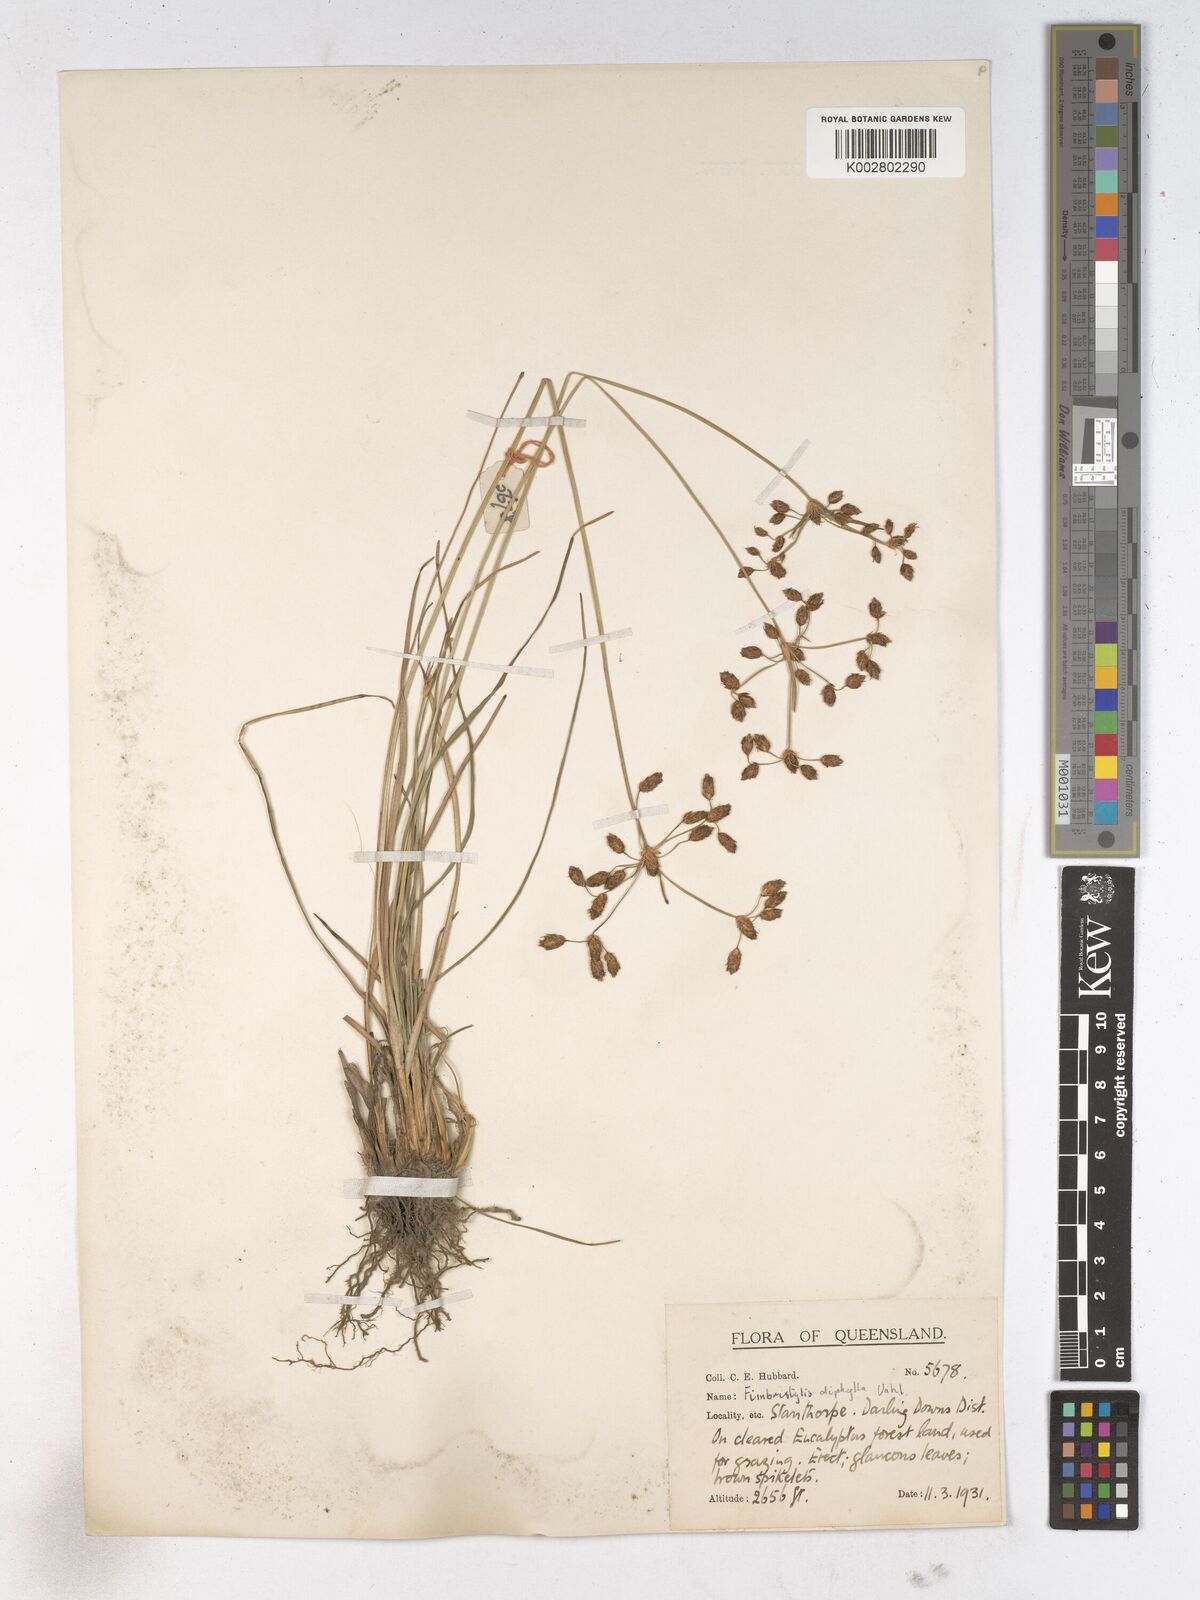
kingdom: Plantae
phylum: Tracheophyta
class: Liliopsida
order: Poales
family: Cyperaceae
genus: Fimbristylis
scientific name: Fimbristylis dichotoma
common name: Forked fimbry
